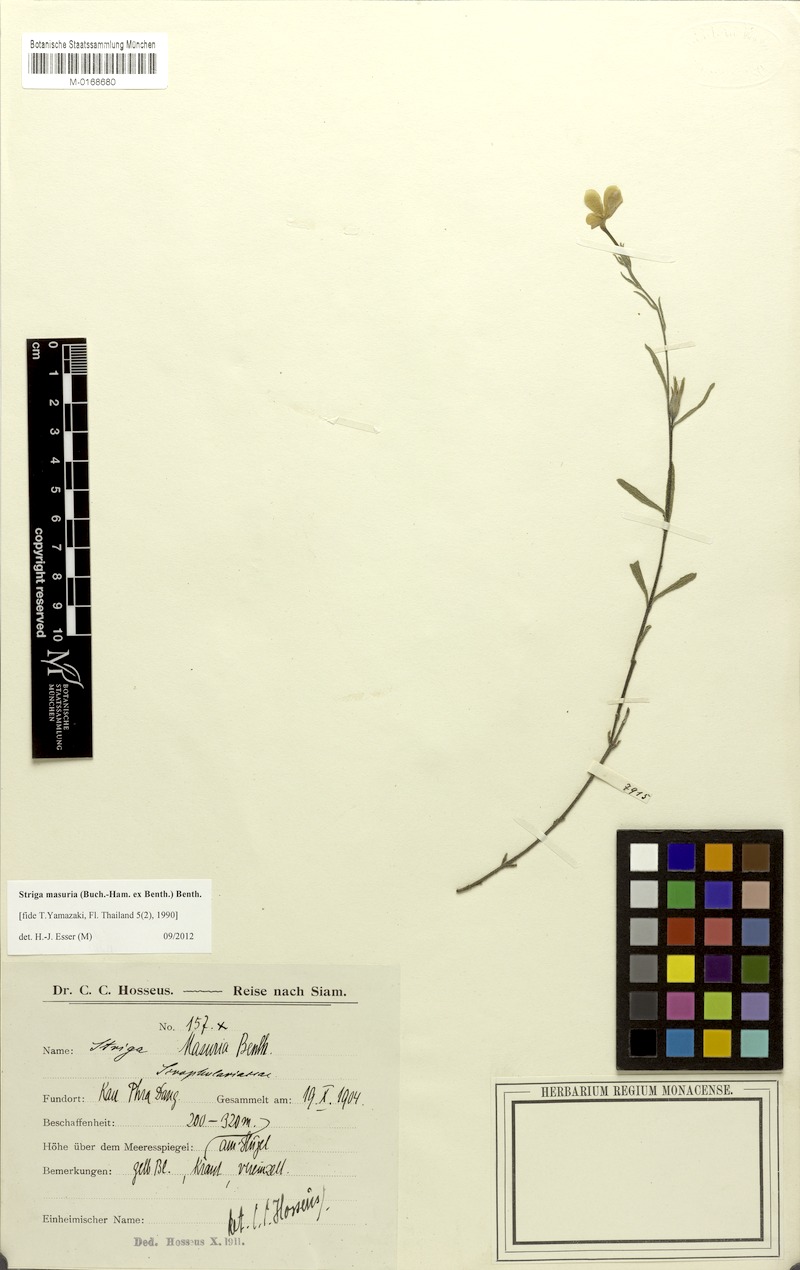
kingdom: Plantae
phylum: Tracheophyta
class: Magnoliopsida
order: Lamiales
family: Orobanchaceae
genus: Striga
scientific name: Striga masuria
